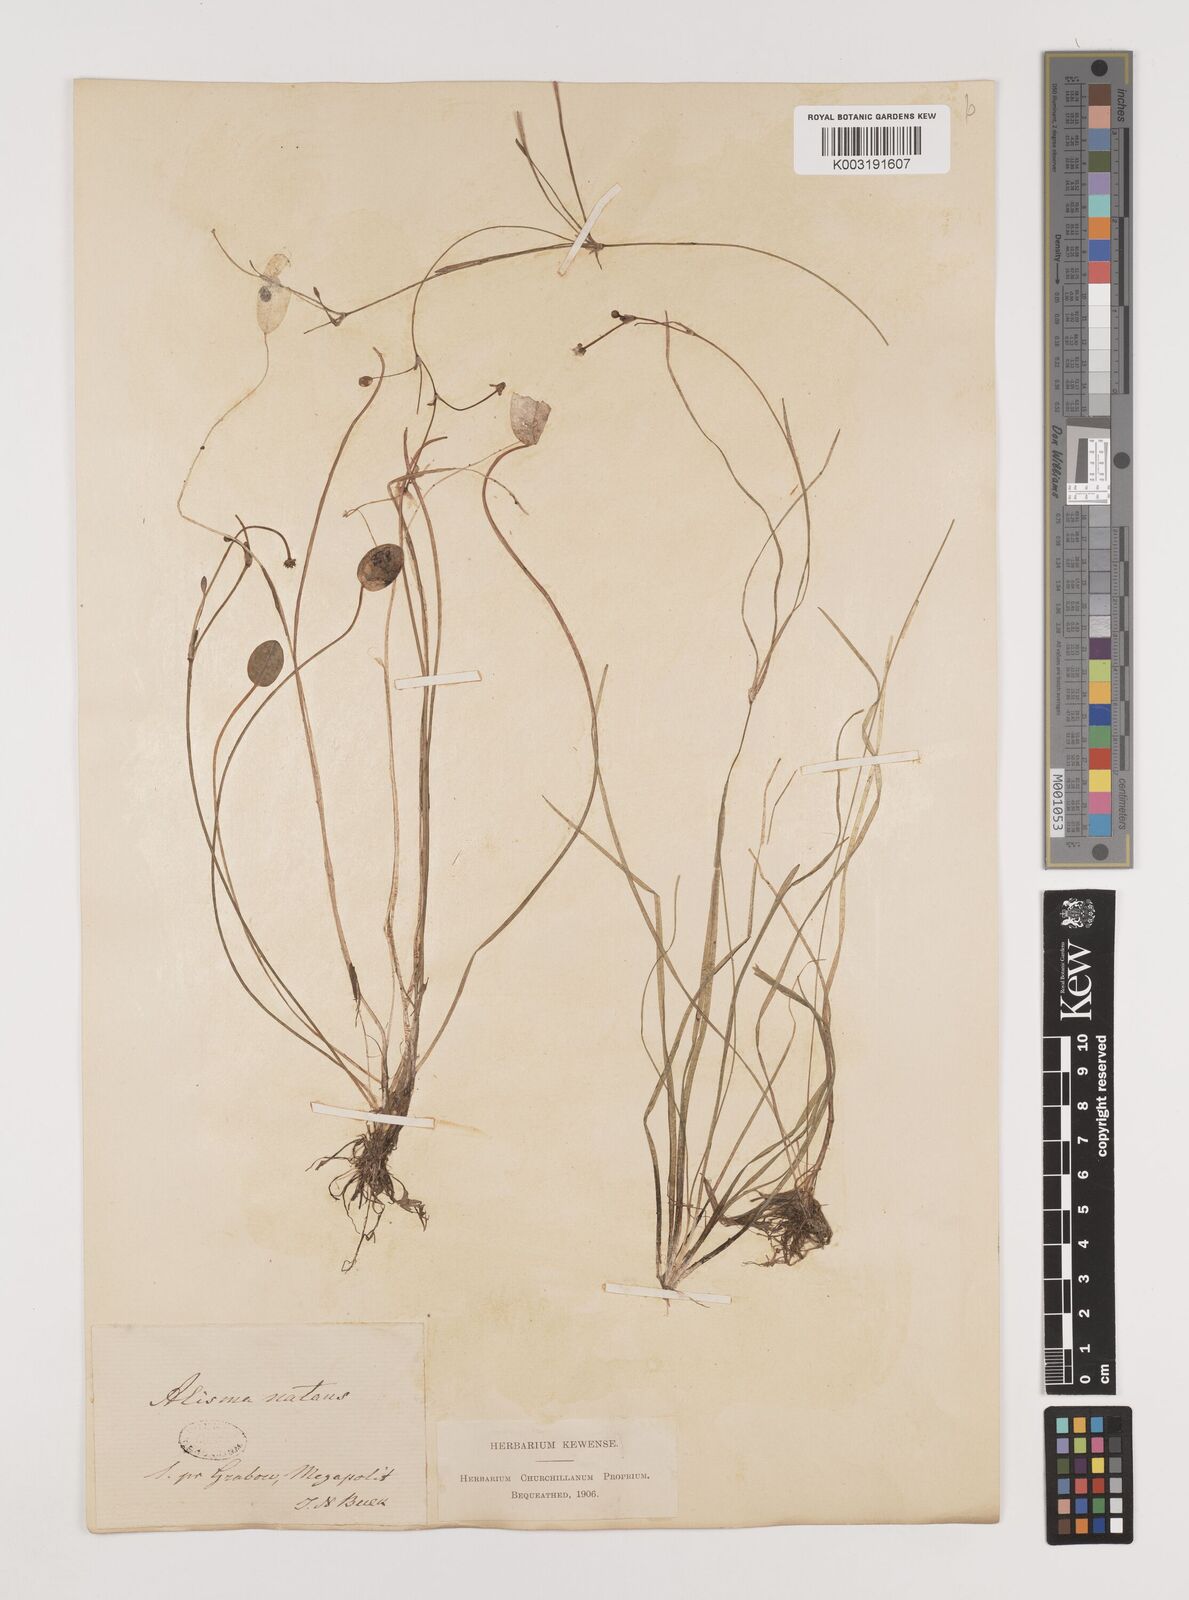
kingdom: Plantae
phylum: Tracheophyta
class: Liliopsida
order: Alismatales
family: Alismataceae
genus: Luronium
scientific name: Luronium natans
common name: Floating water-plantain
